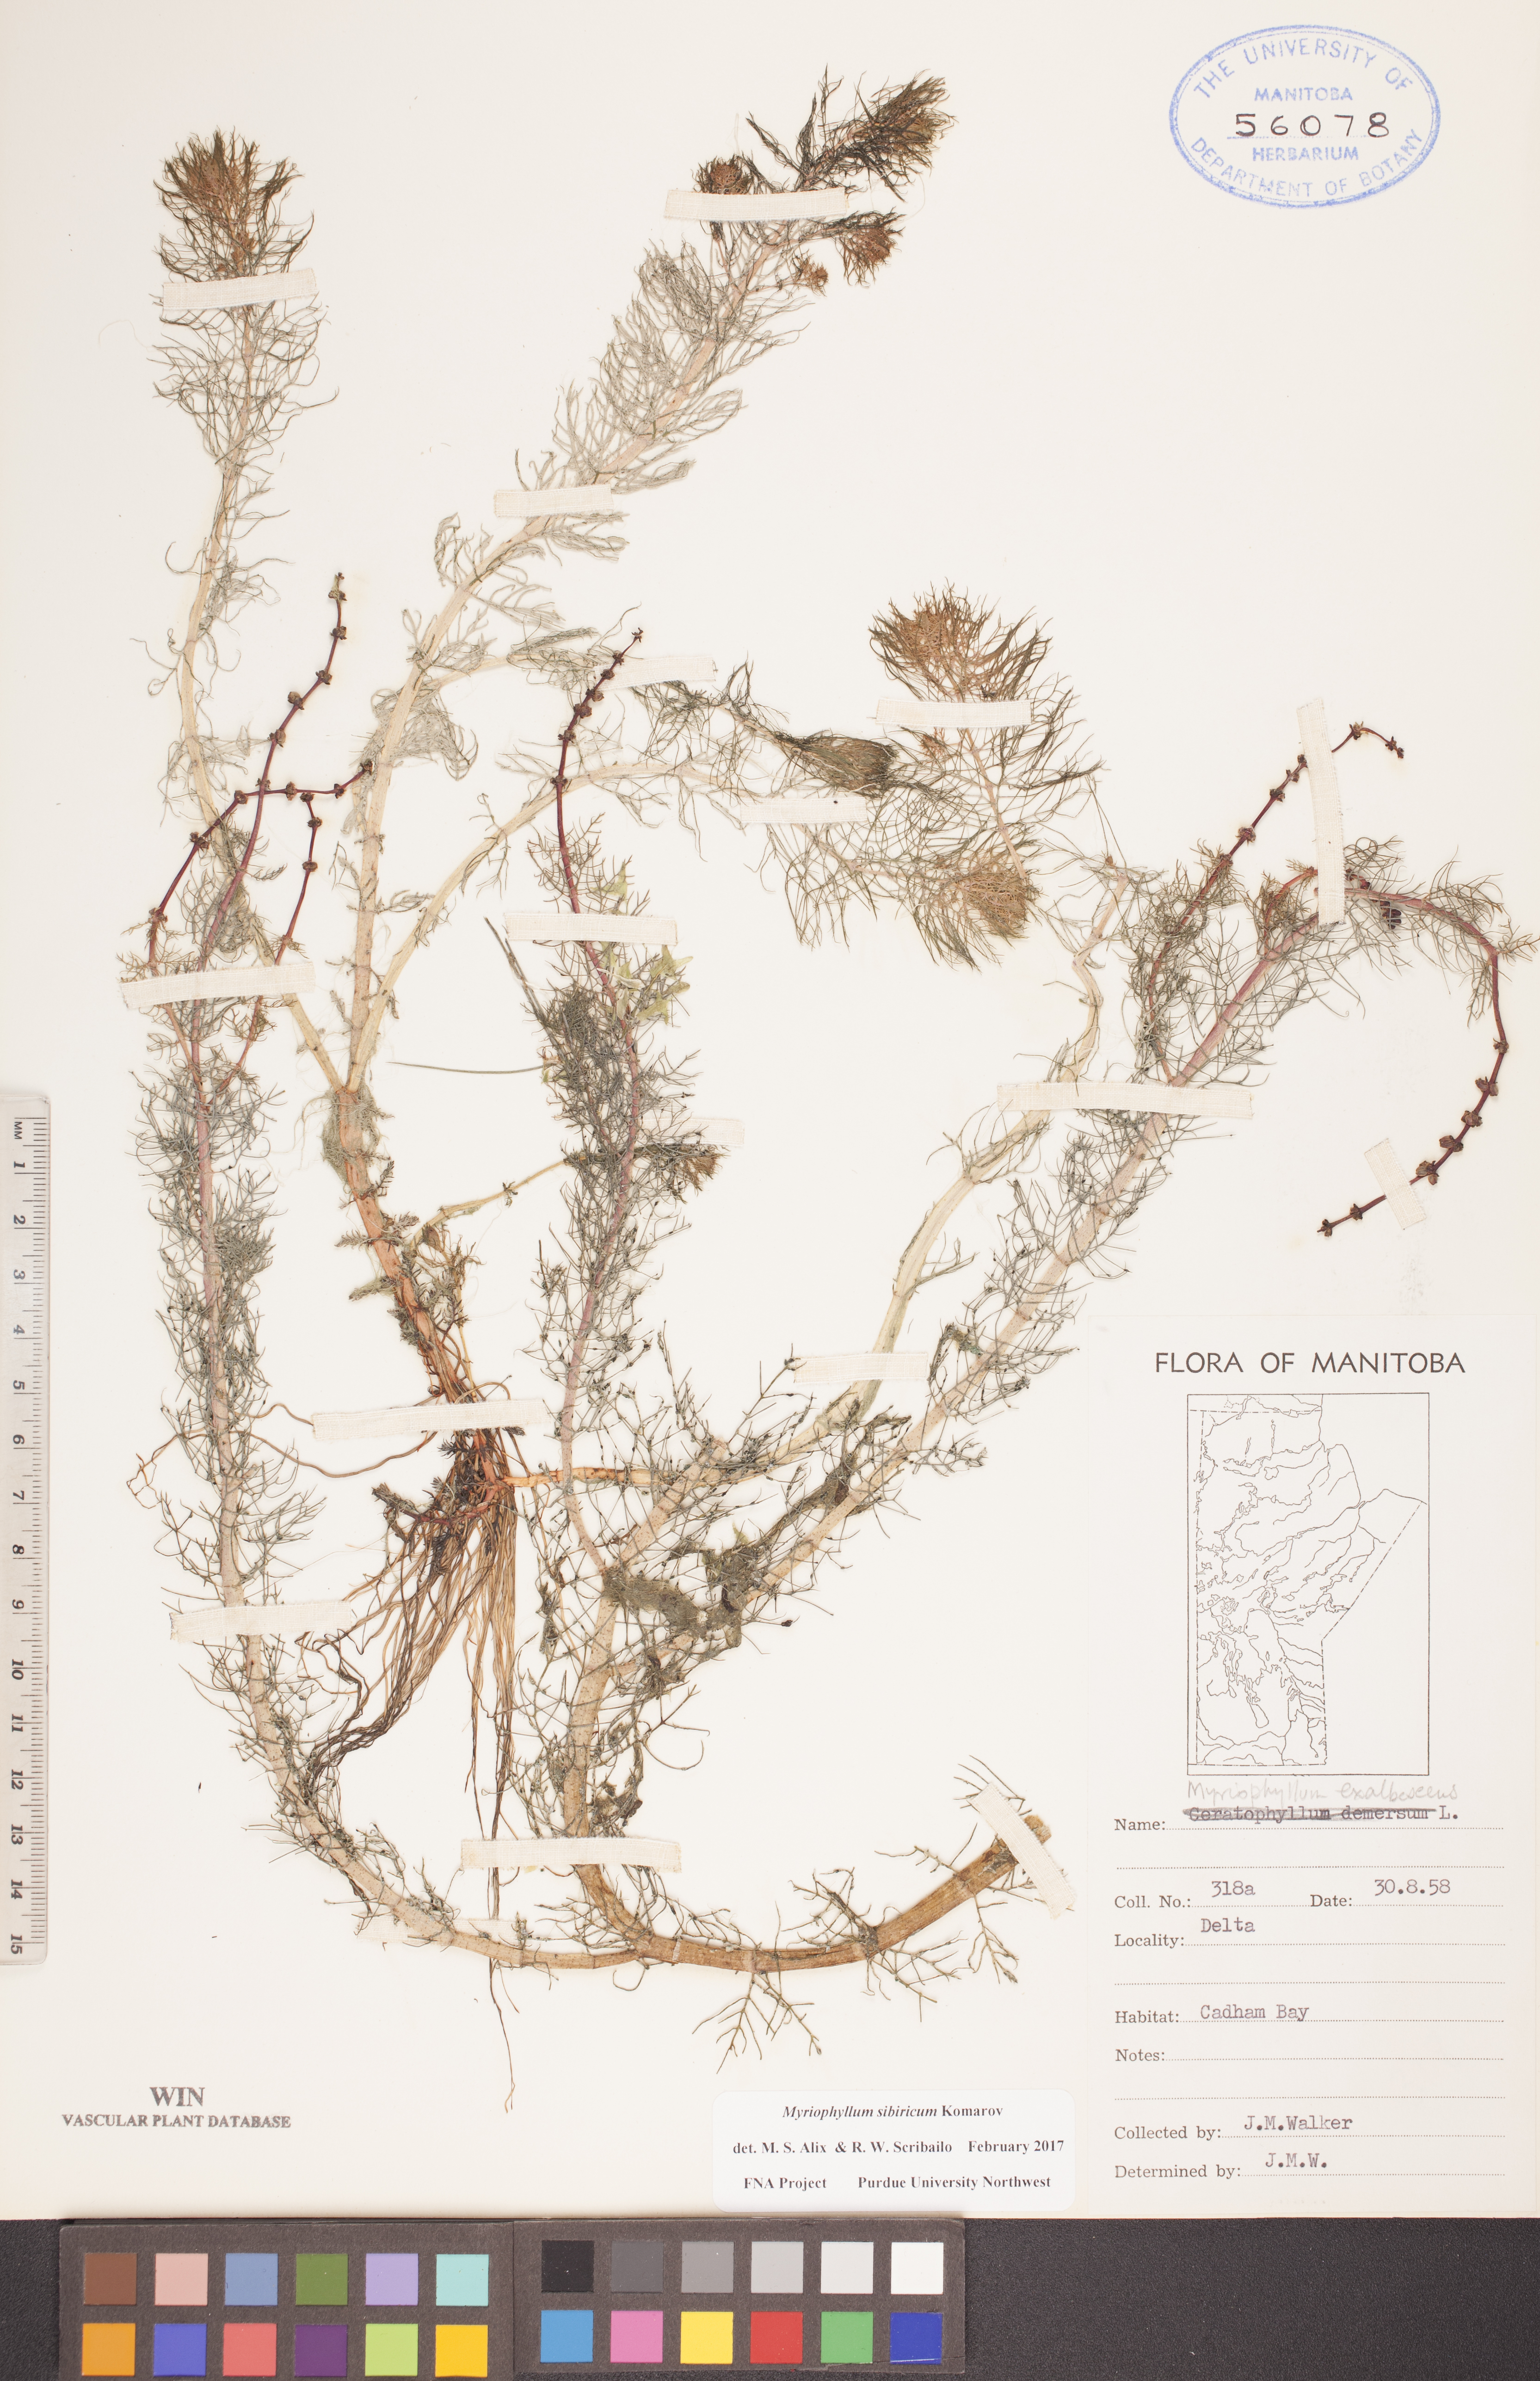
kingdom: Plantae
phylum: Tracheophyta
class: Magnoliopsida
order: Saxifragales
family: Haloragaceae
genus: Myriophyllum
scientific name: Myriophyllum sibiricum
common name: Siberian water-milfoil
